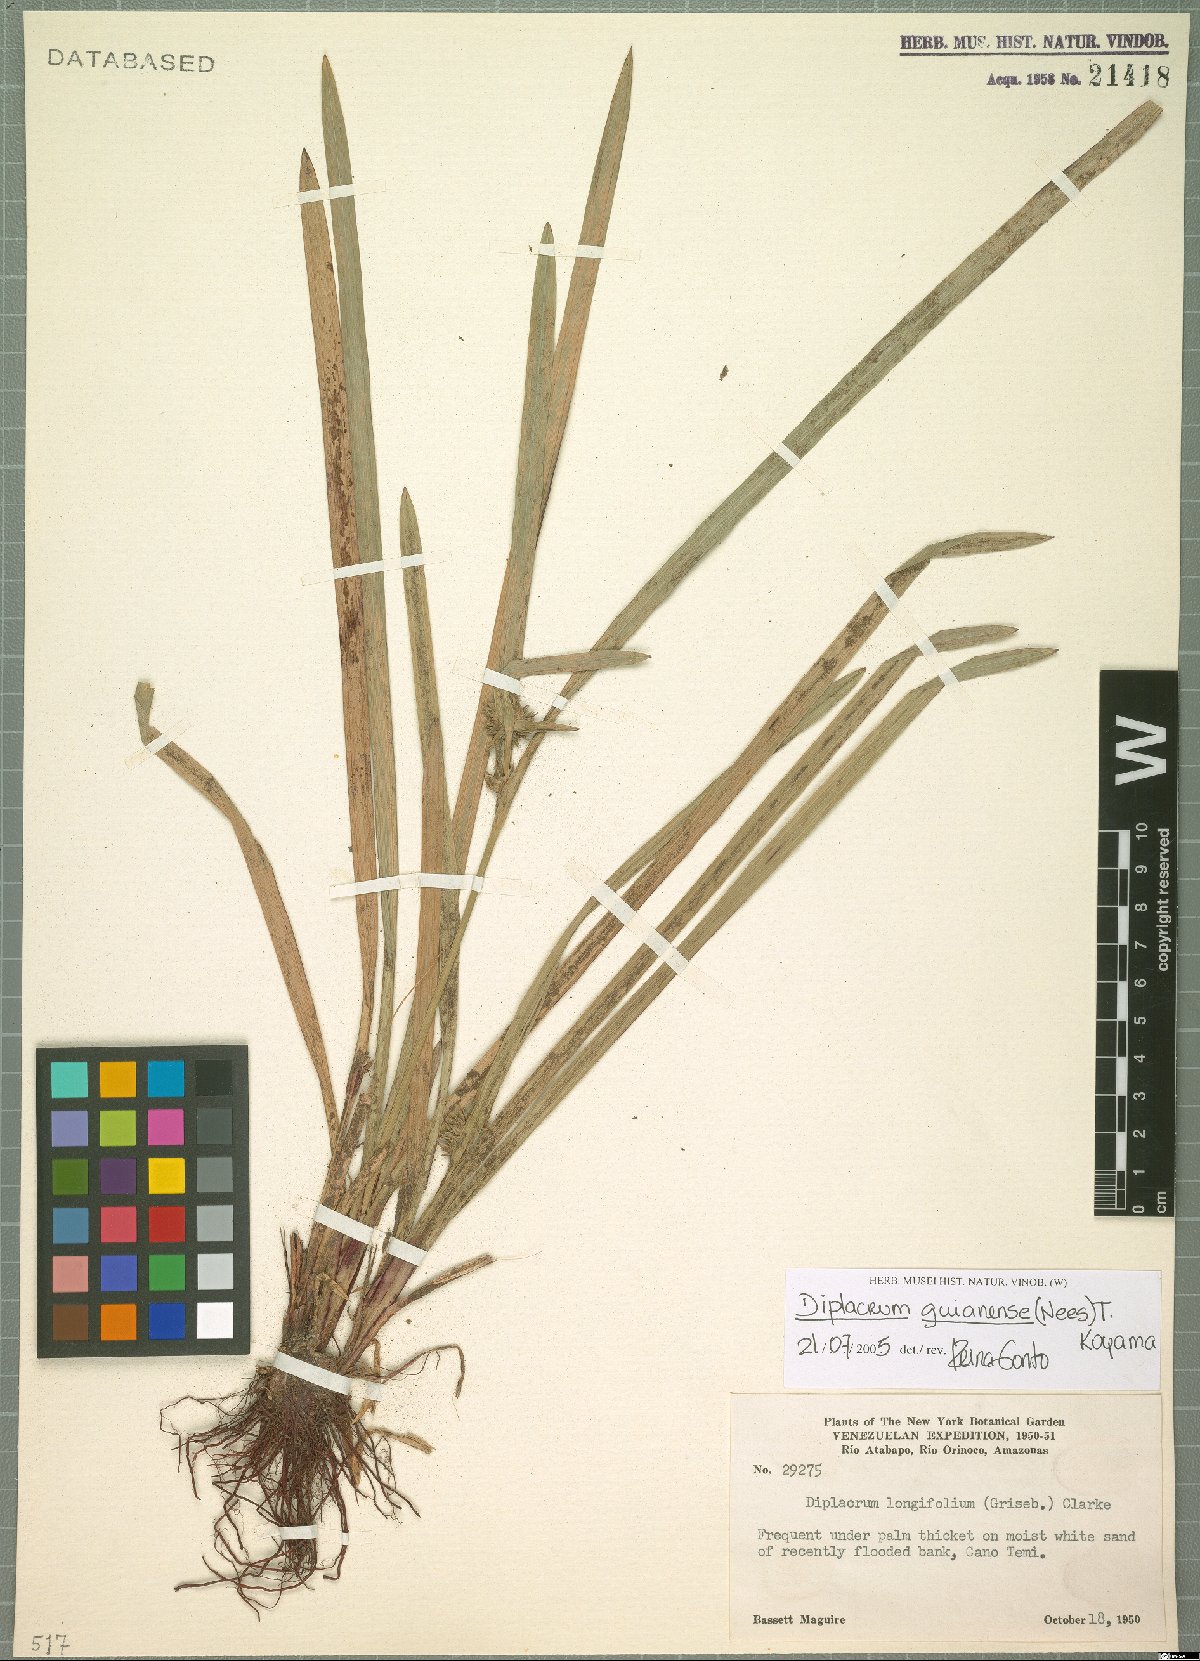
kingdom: Plantae
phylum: Tracheophyta
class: Liliopsida
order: Poales
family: Cyperaceae
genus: Diplacrum
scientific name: Diplacrum guianense
